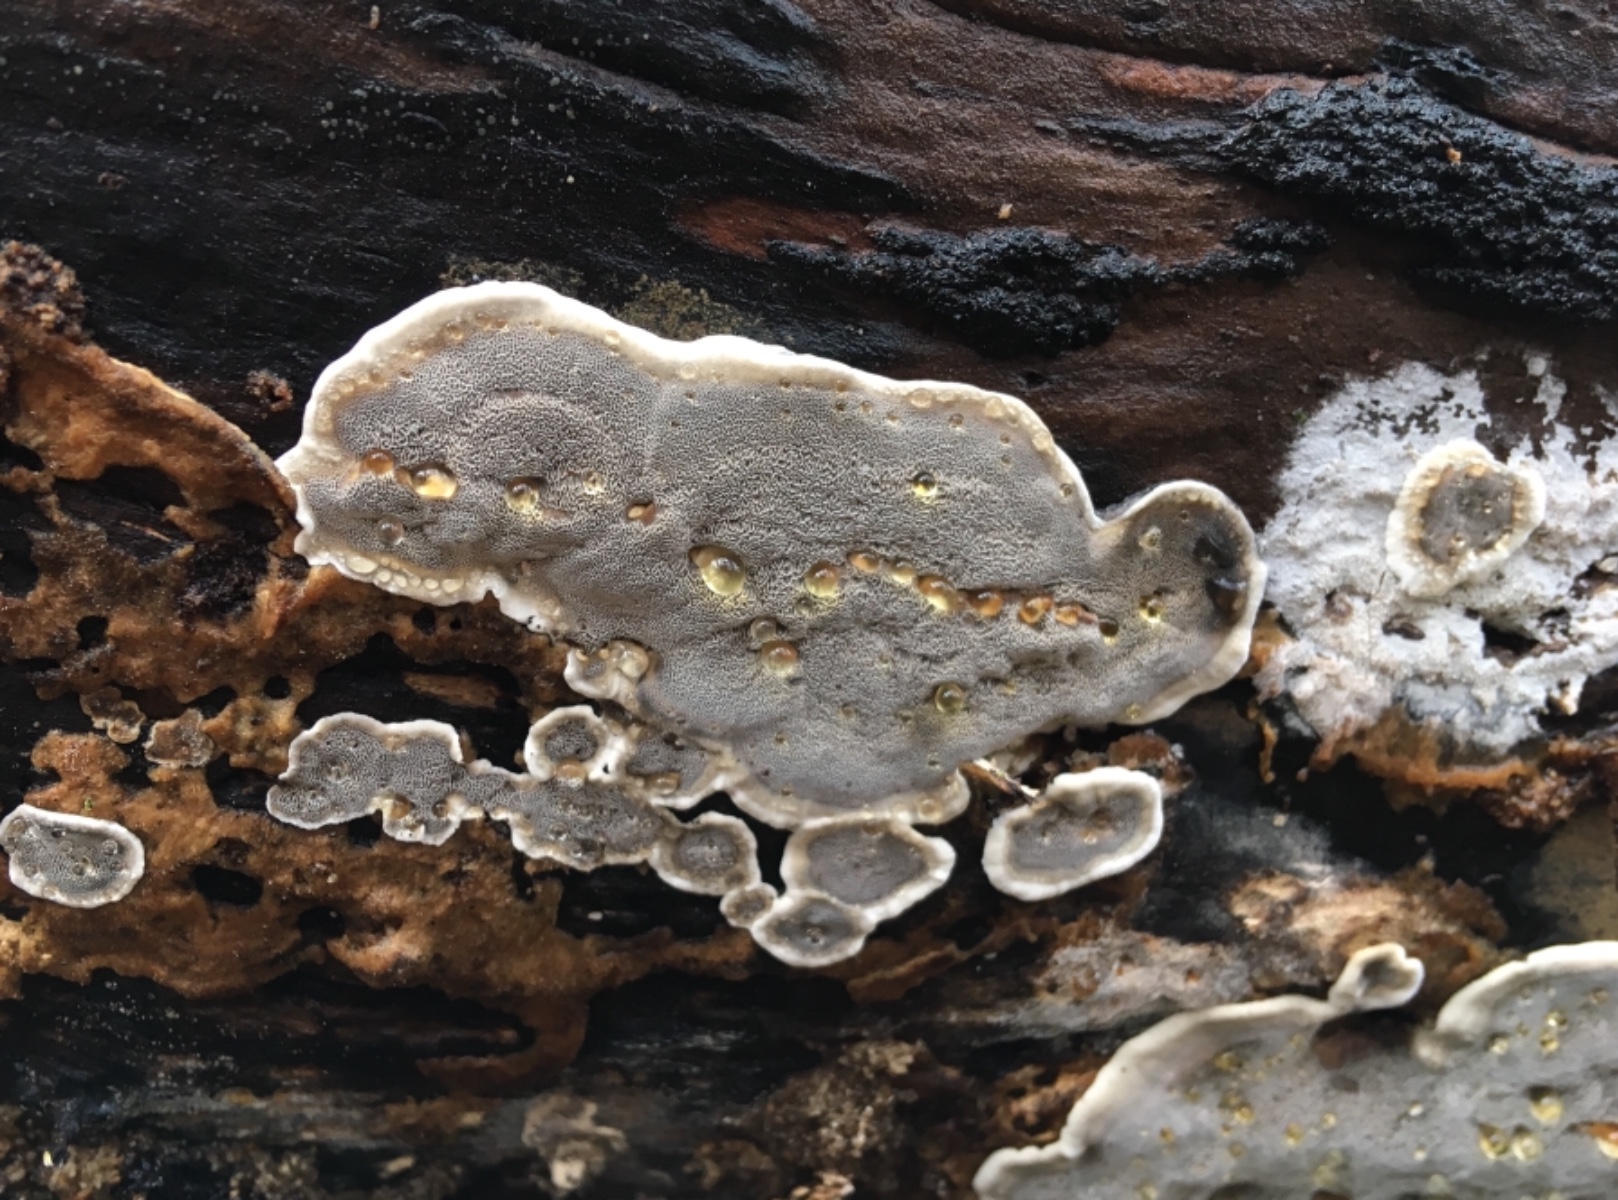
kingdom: Fungi
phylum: Basidiomycota
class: Agaricomycetes
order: Polyporales
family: Phanerochaetaceae
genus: Bjerkandera
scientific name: Bjerkandera adusta
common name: sveden sodporesvamp
